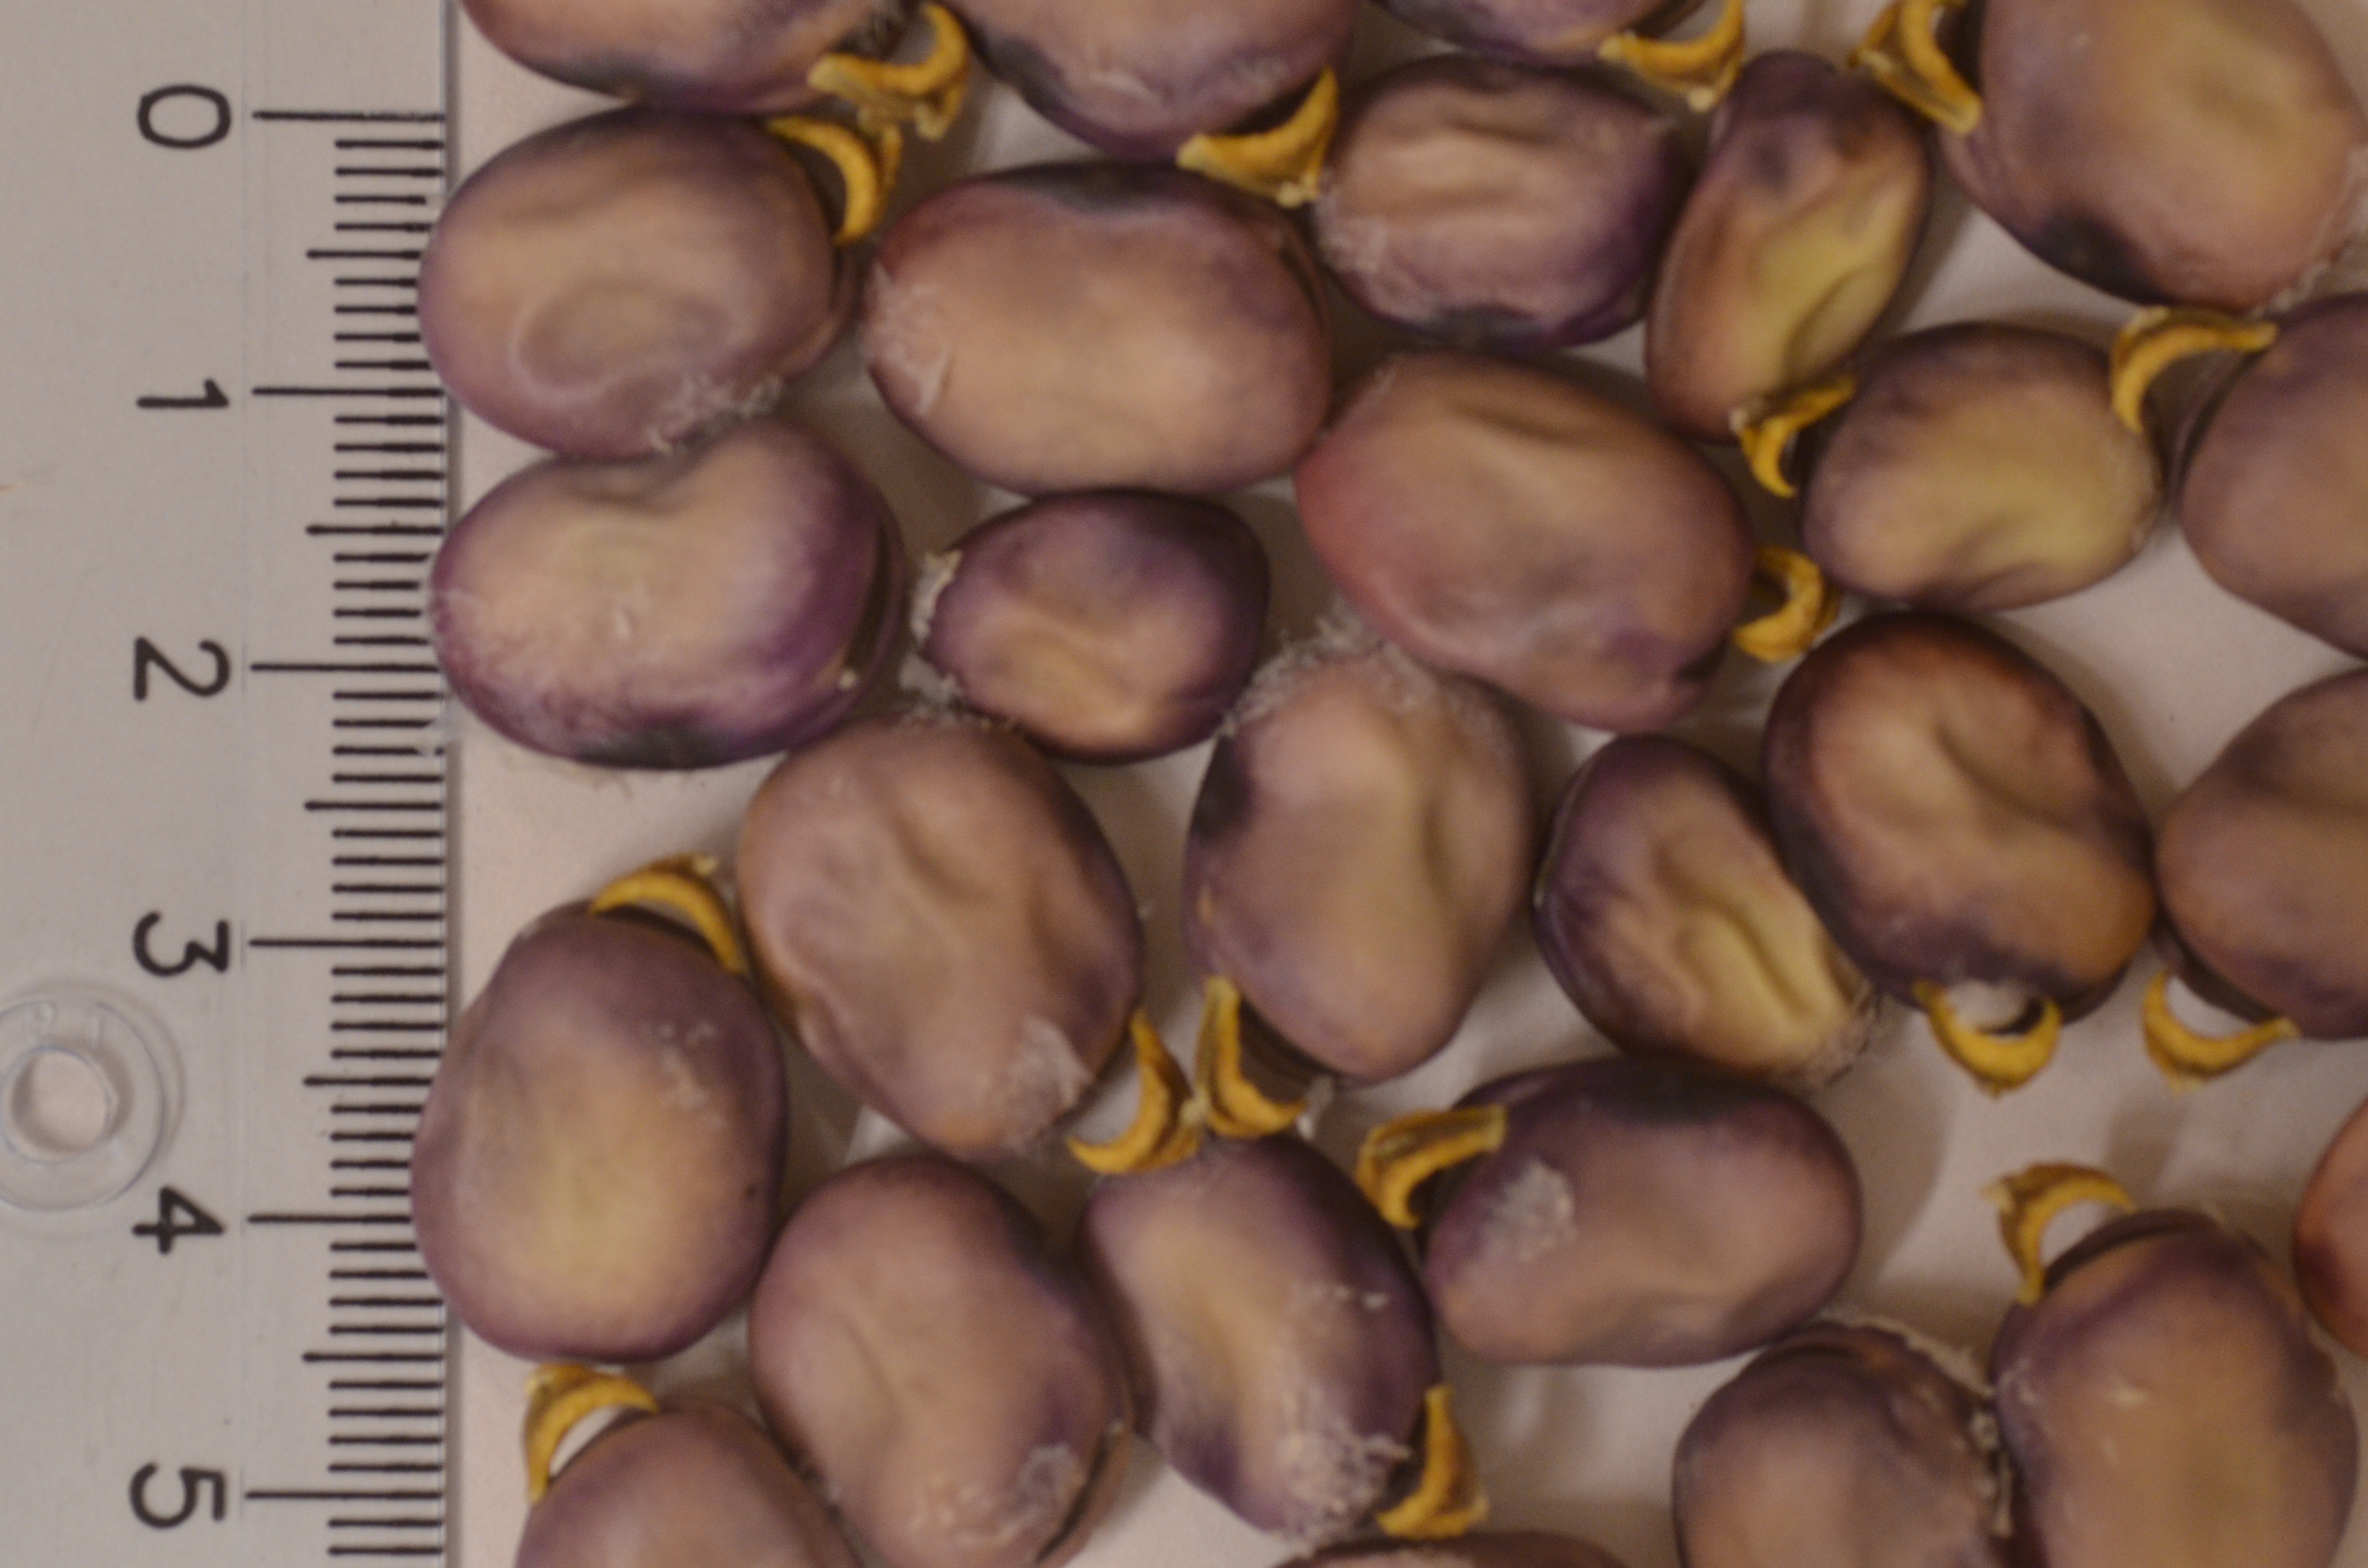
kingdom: Plantae
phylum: Tracheophyta
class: Magnoliopsida
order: Fabales
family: Fabaceae
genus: Vicia
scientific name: Vicia faba
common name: Broad bean
